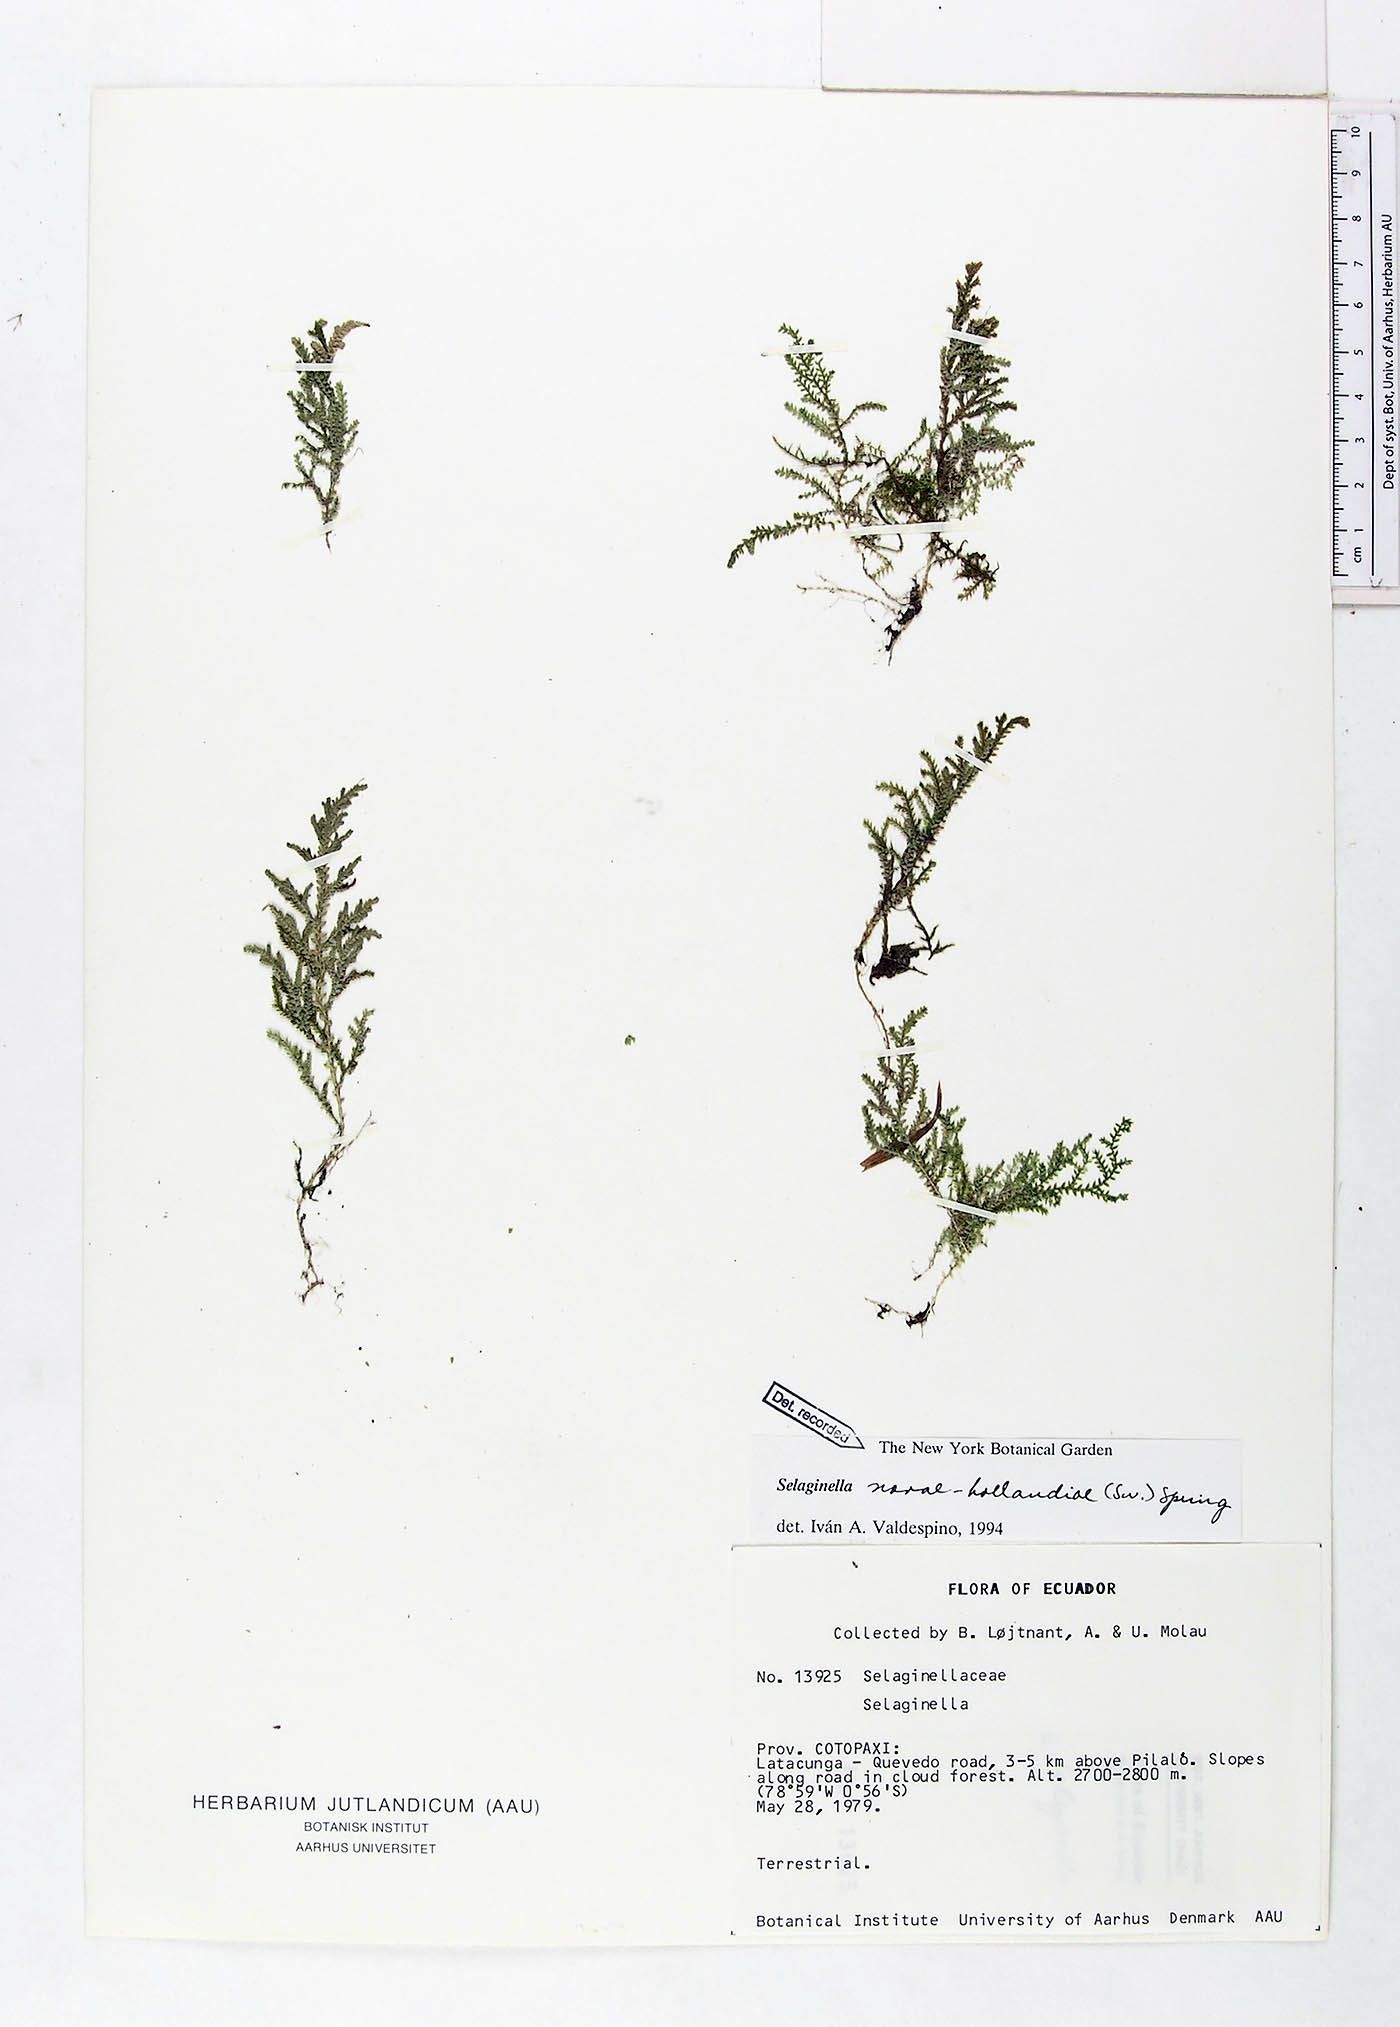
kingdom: Plantae
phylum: Tracheophyta
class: Lycopodiopsida
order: Selaginellales
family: Selaginellaceae
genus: Selaginella
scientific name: Selaginella novae-hollandiae
